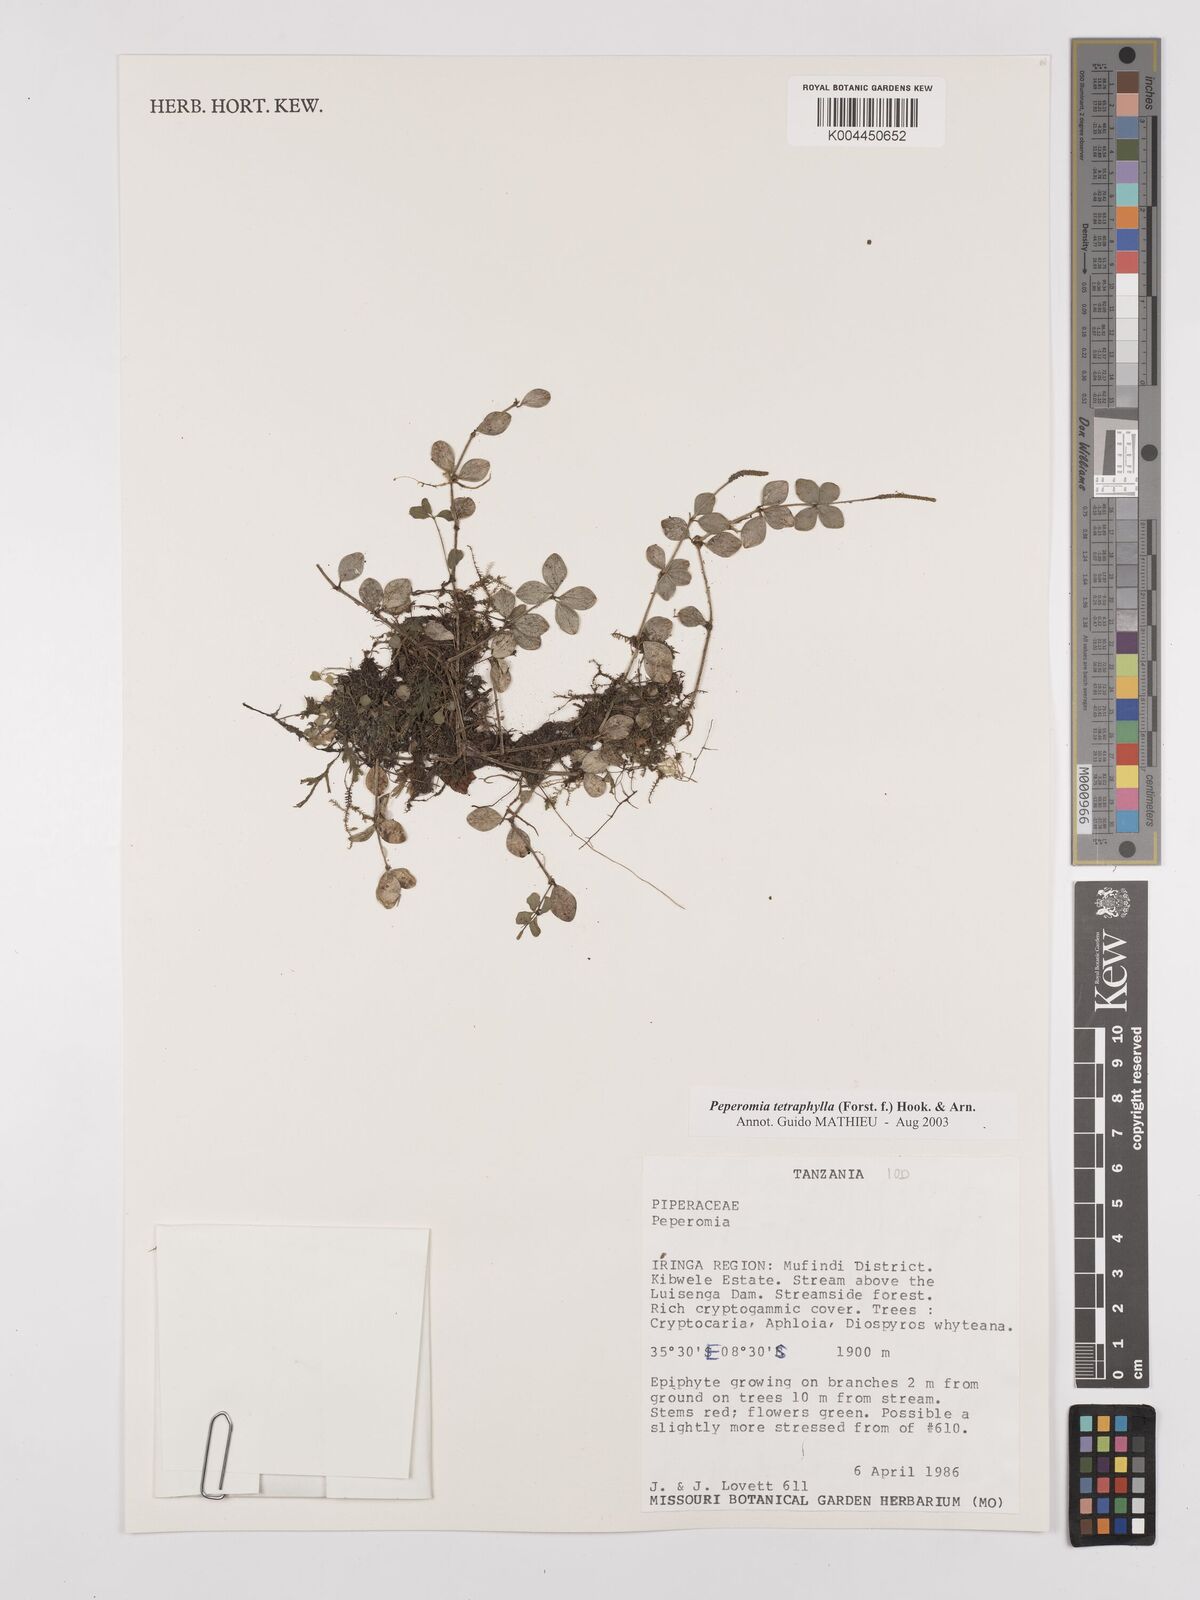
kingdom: Plantae
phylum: Tracheophyta
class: Magnoliopsida
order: Piperales
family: Piperaceae
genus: Peperomia
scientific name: Peperomia tetraphylla
